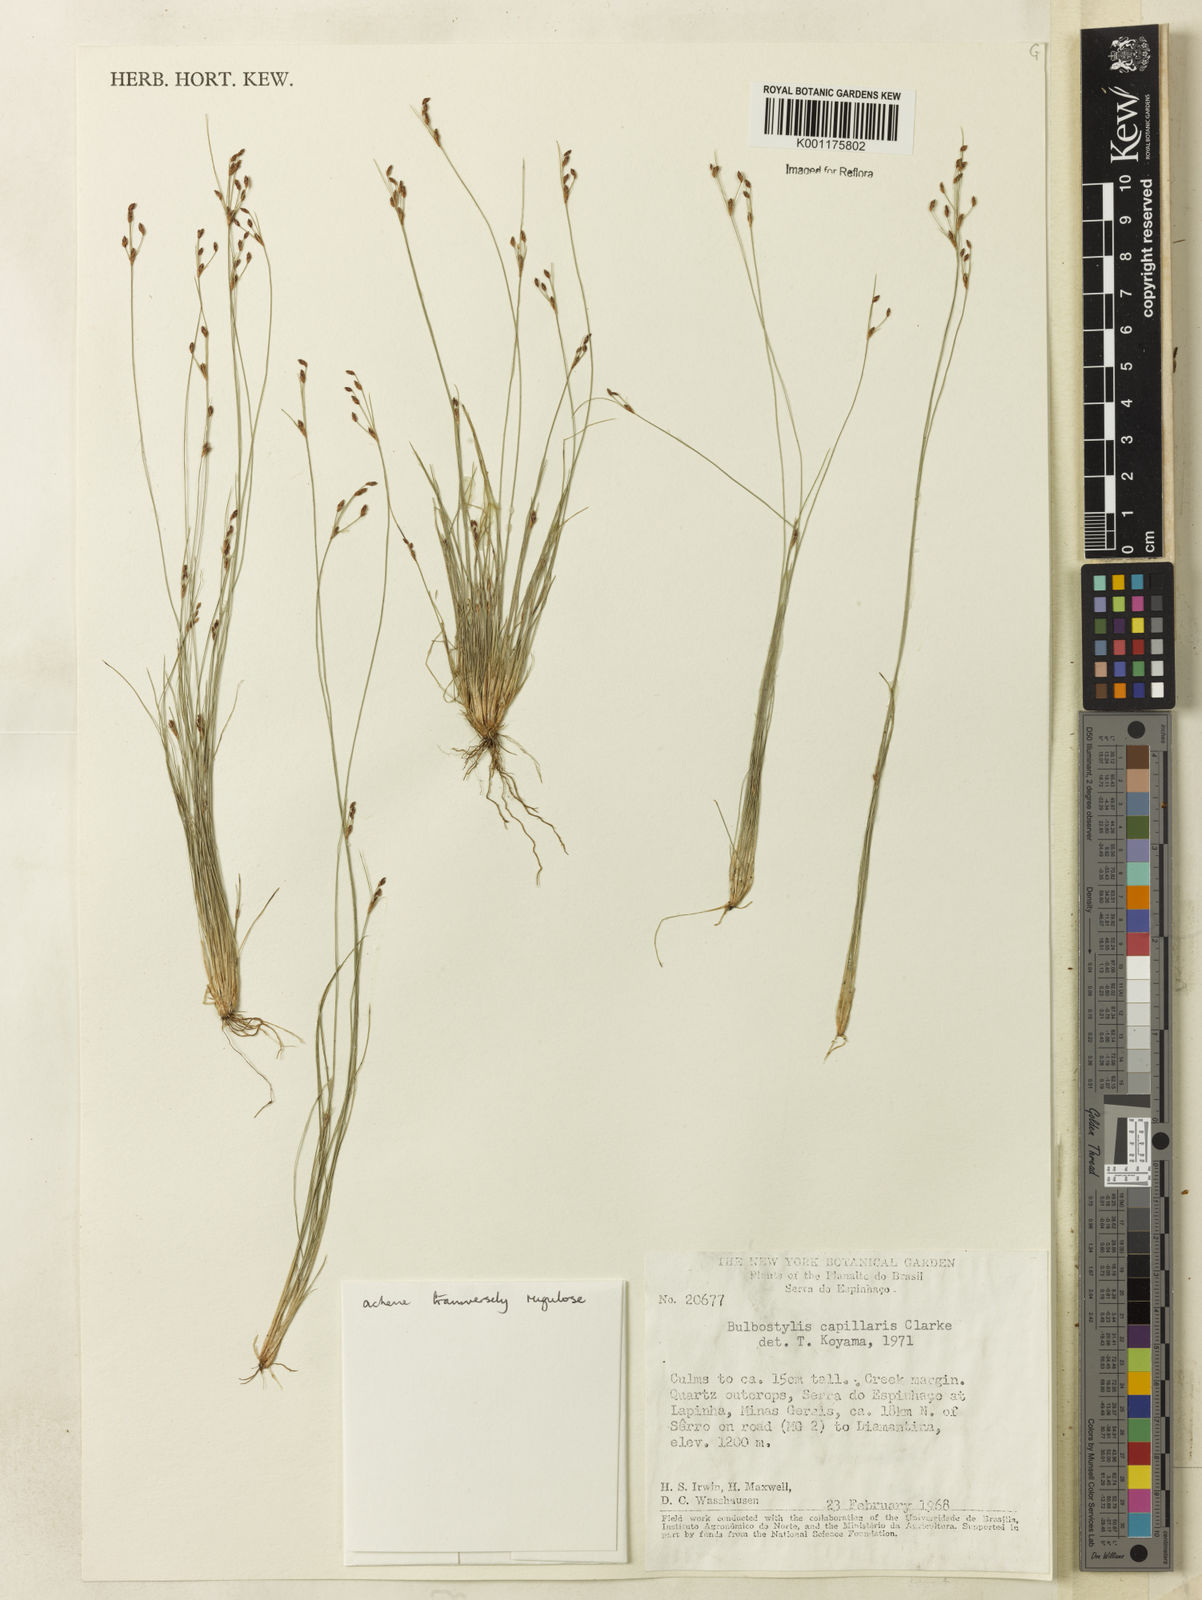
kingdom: Plantae
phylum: Tracheophyta
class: Liliopsida
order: Poales
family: Cyperaceae
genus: Bulbostylis
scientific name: Bulbostylis capillaris
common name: Densetuft hairsedge
